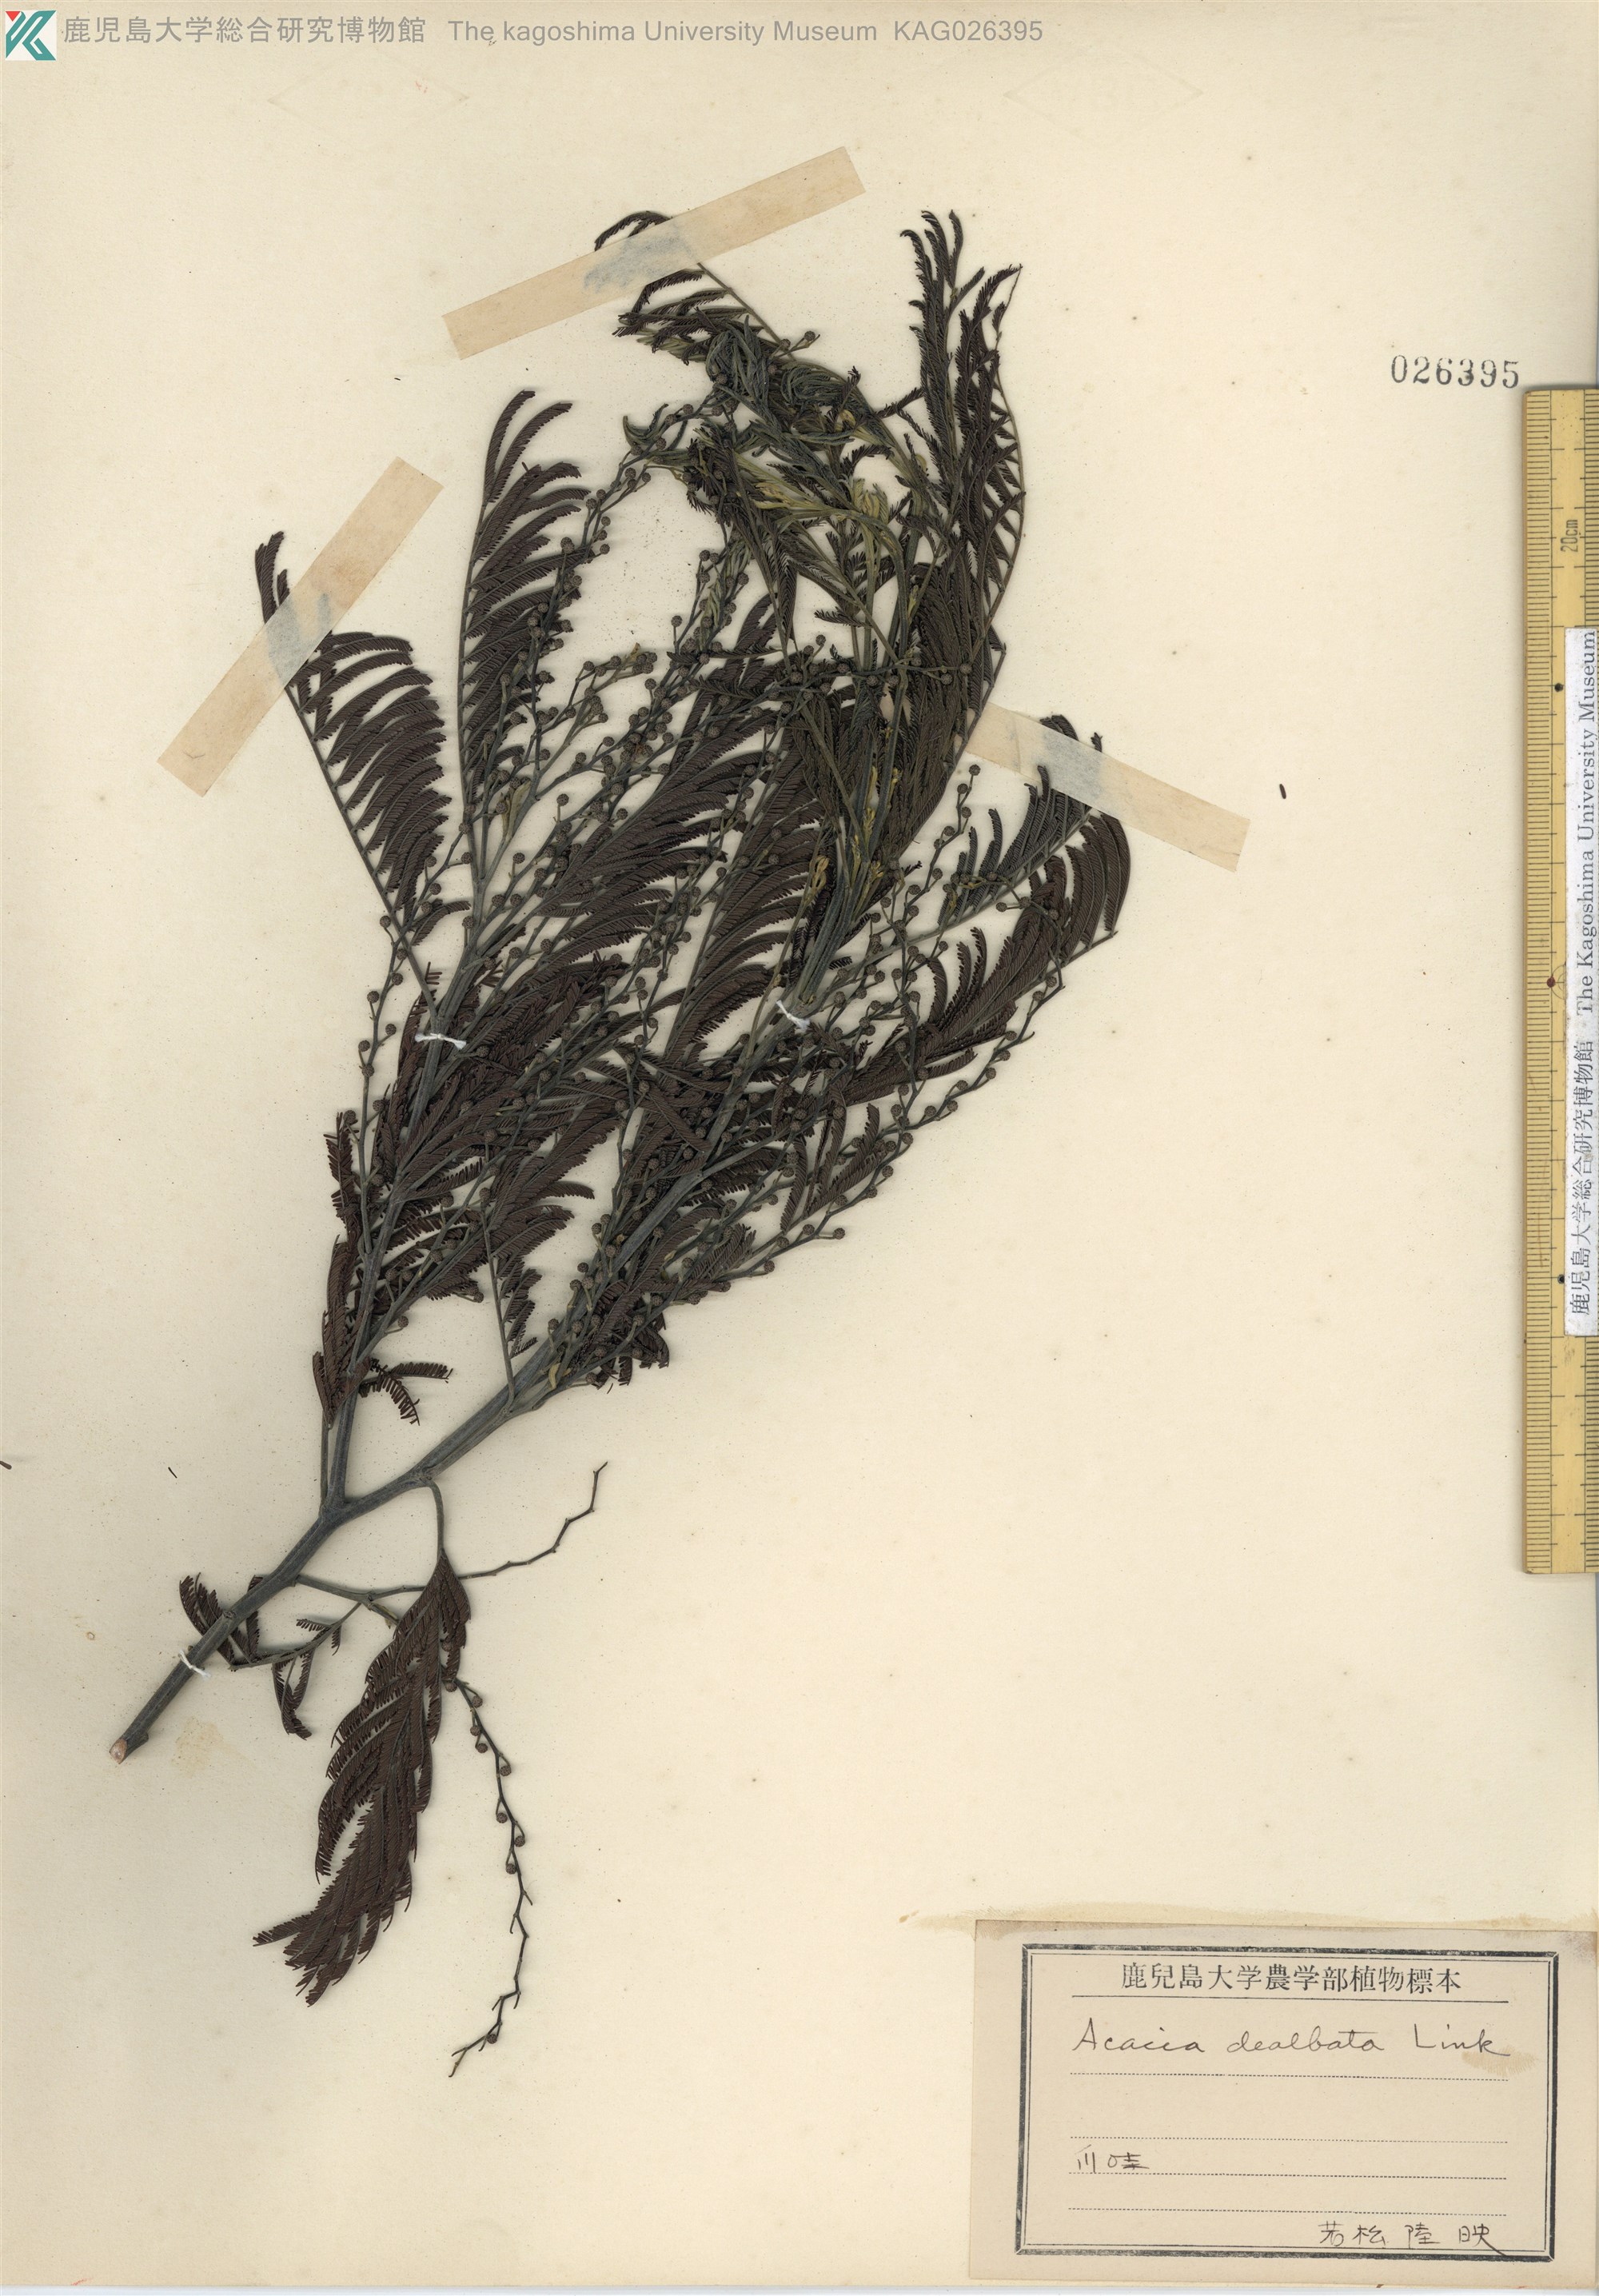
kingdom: Plantae
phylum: Tracheophyta
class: Magnoliopsida
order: Fabales
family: Fabaceae
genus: Acacia
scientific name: Acacia dealbata
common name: Silver wattle
